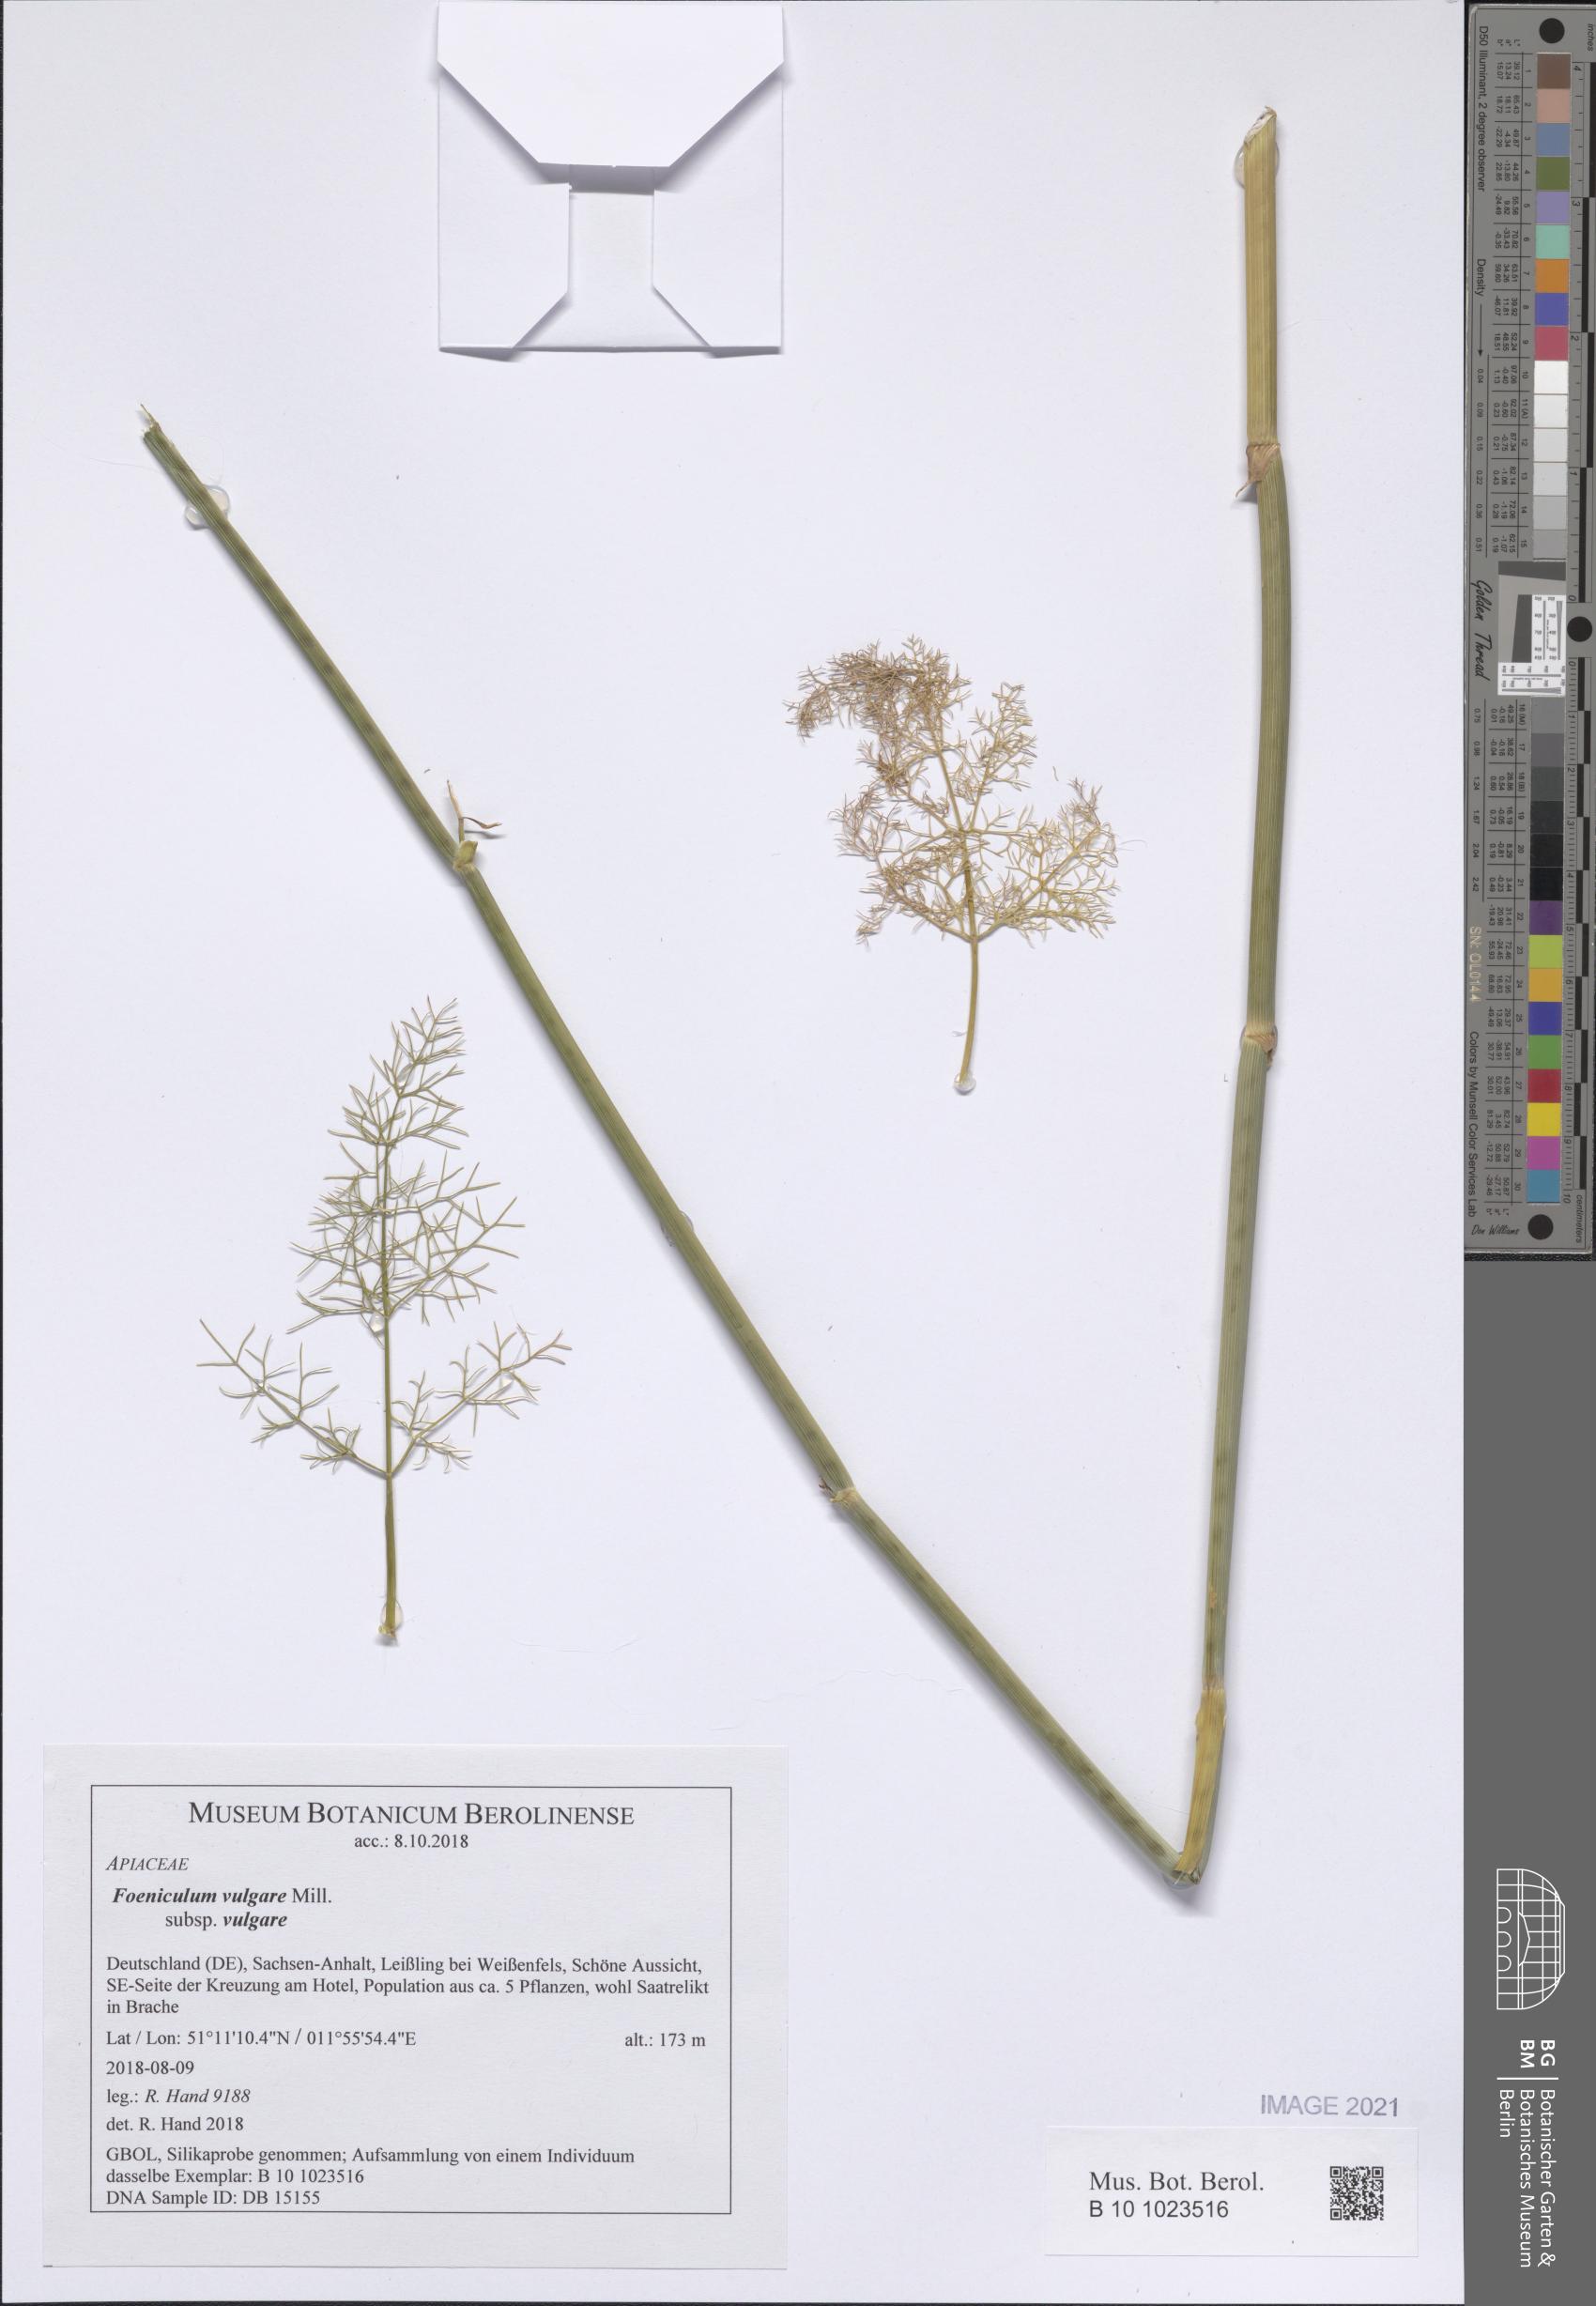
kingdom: Plantae
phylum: Tracheophyta
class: Magnoliopsida
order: Apiales
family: Apiaceae
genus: Foeniculum
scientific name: Foeniculum vulgare
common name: Fennel
